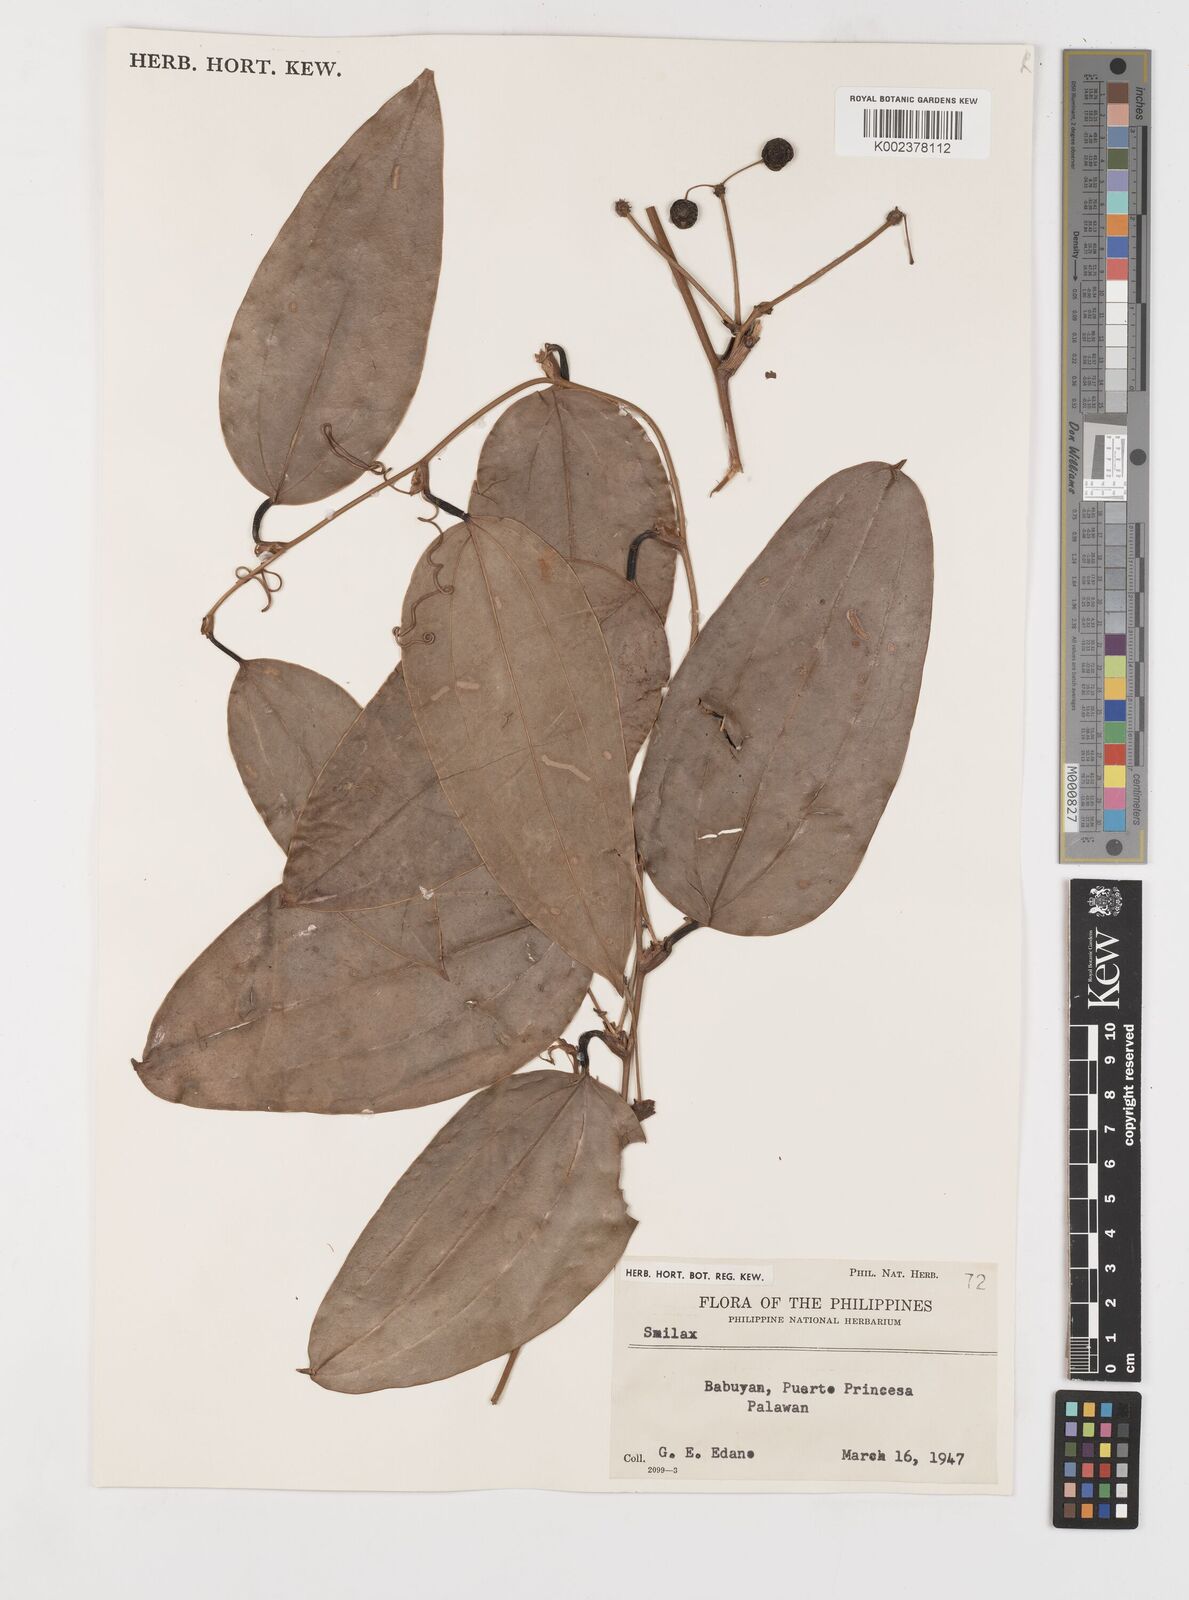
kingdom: Plantae
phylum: Tracheophyta
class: Liliopsida
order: Liliales
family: Smilacaceae
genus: Smilax
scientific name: Smilax
